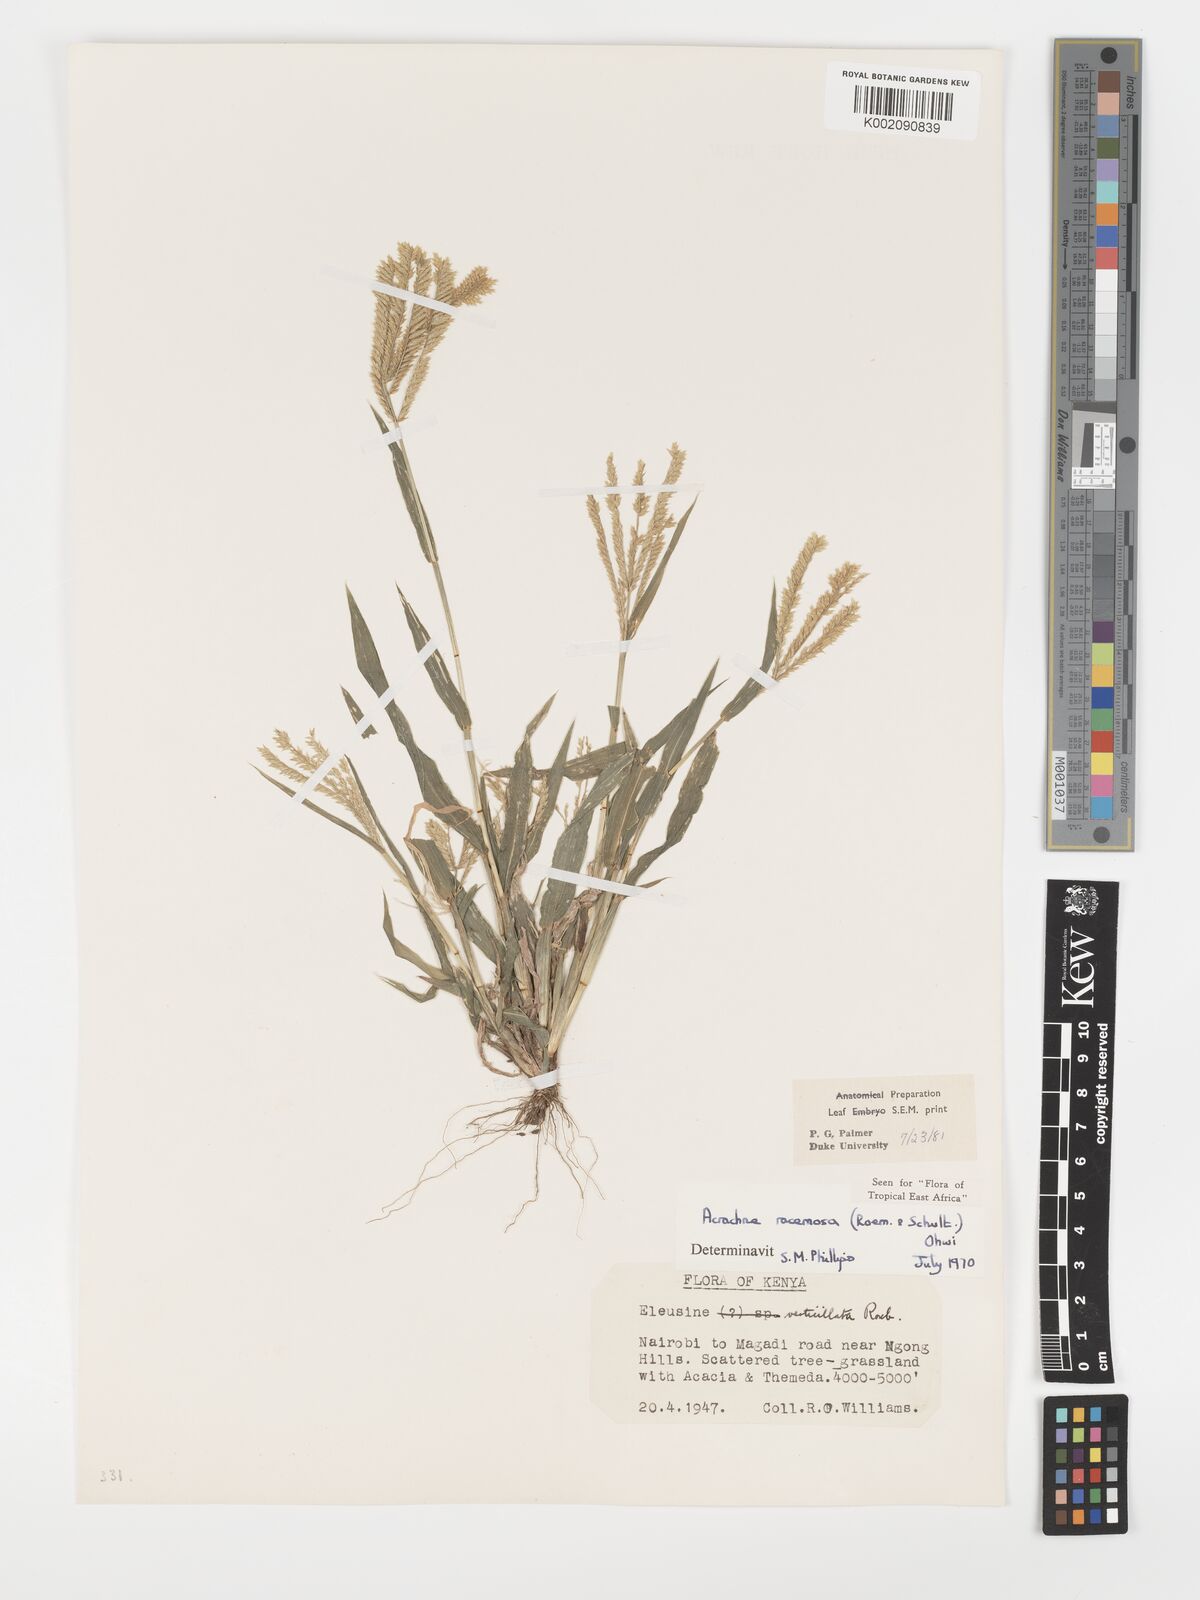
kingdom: Plantae
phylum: Tracheophyta
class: Liliopsida
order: Poales
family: Poaceae
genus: Acrachne
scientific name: Acrachne racemosa
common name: Goosegrass
